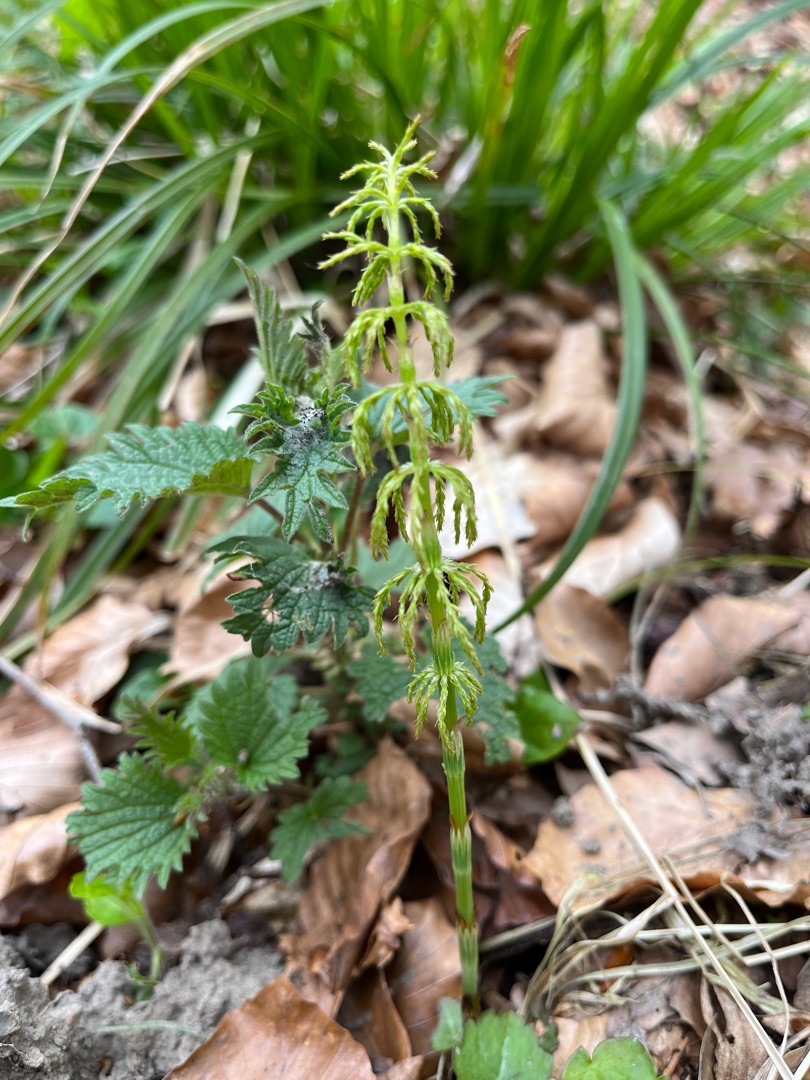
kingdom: Plantae
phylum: Tracheophyta
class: Polypodiopsida
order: Equisetales
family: Equisetaceae
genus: Equisetum
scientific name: Equisetum sylvaticum
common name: Skov-padderok
